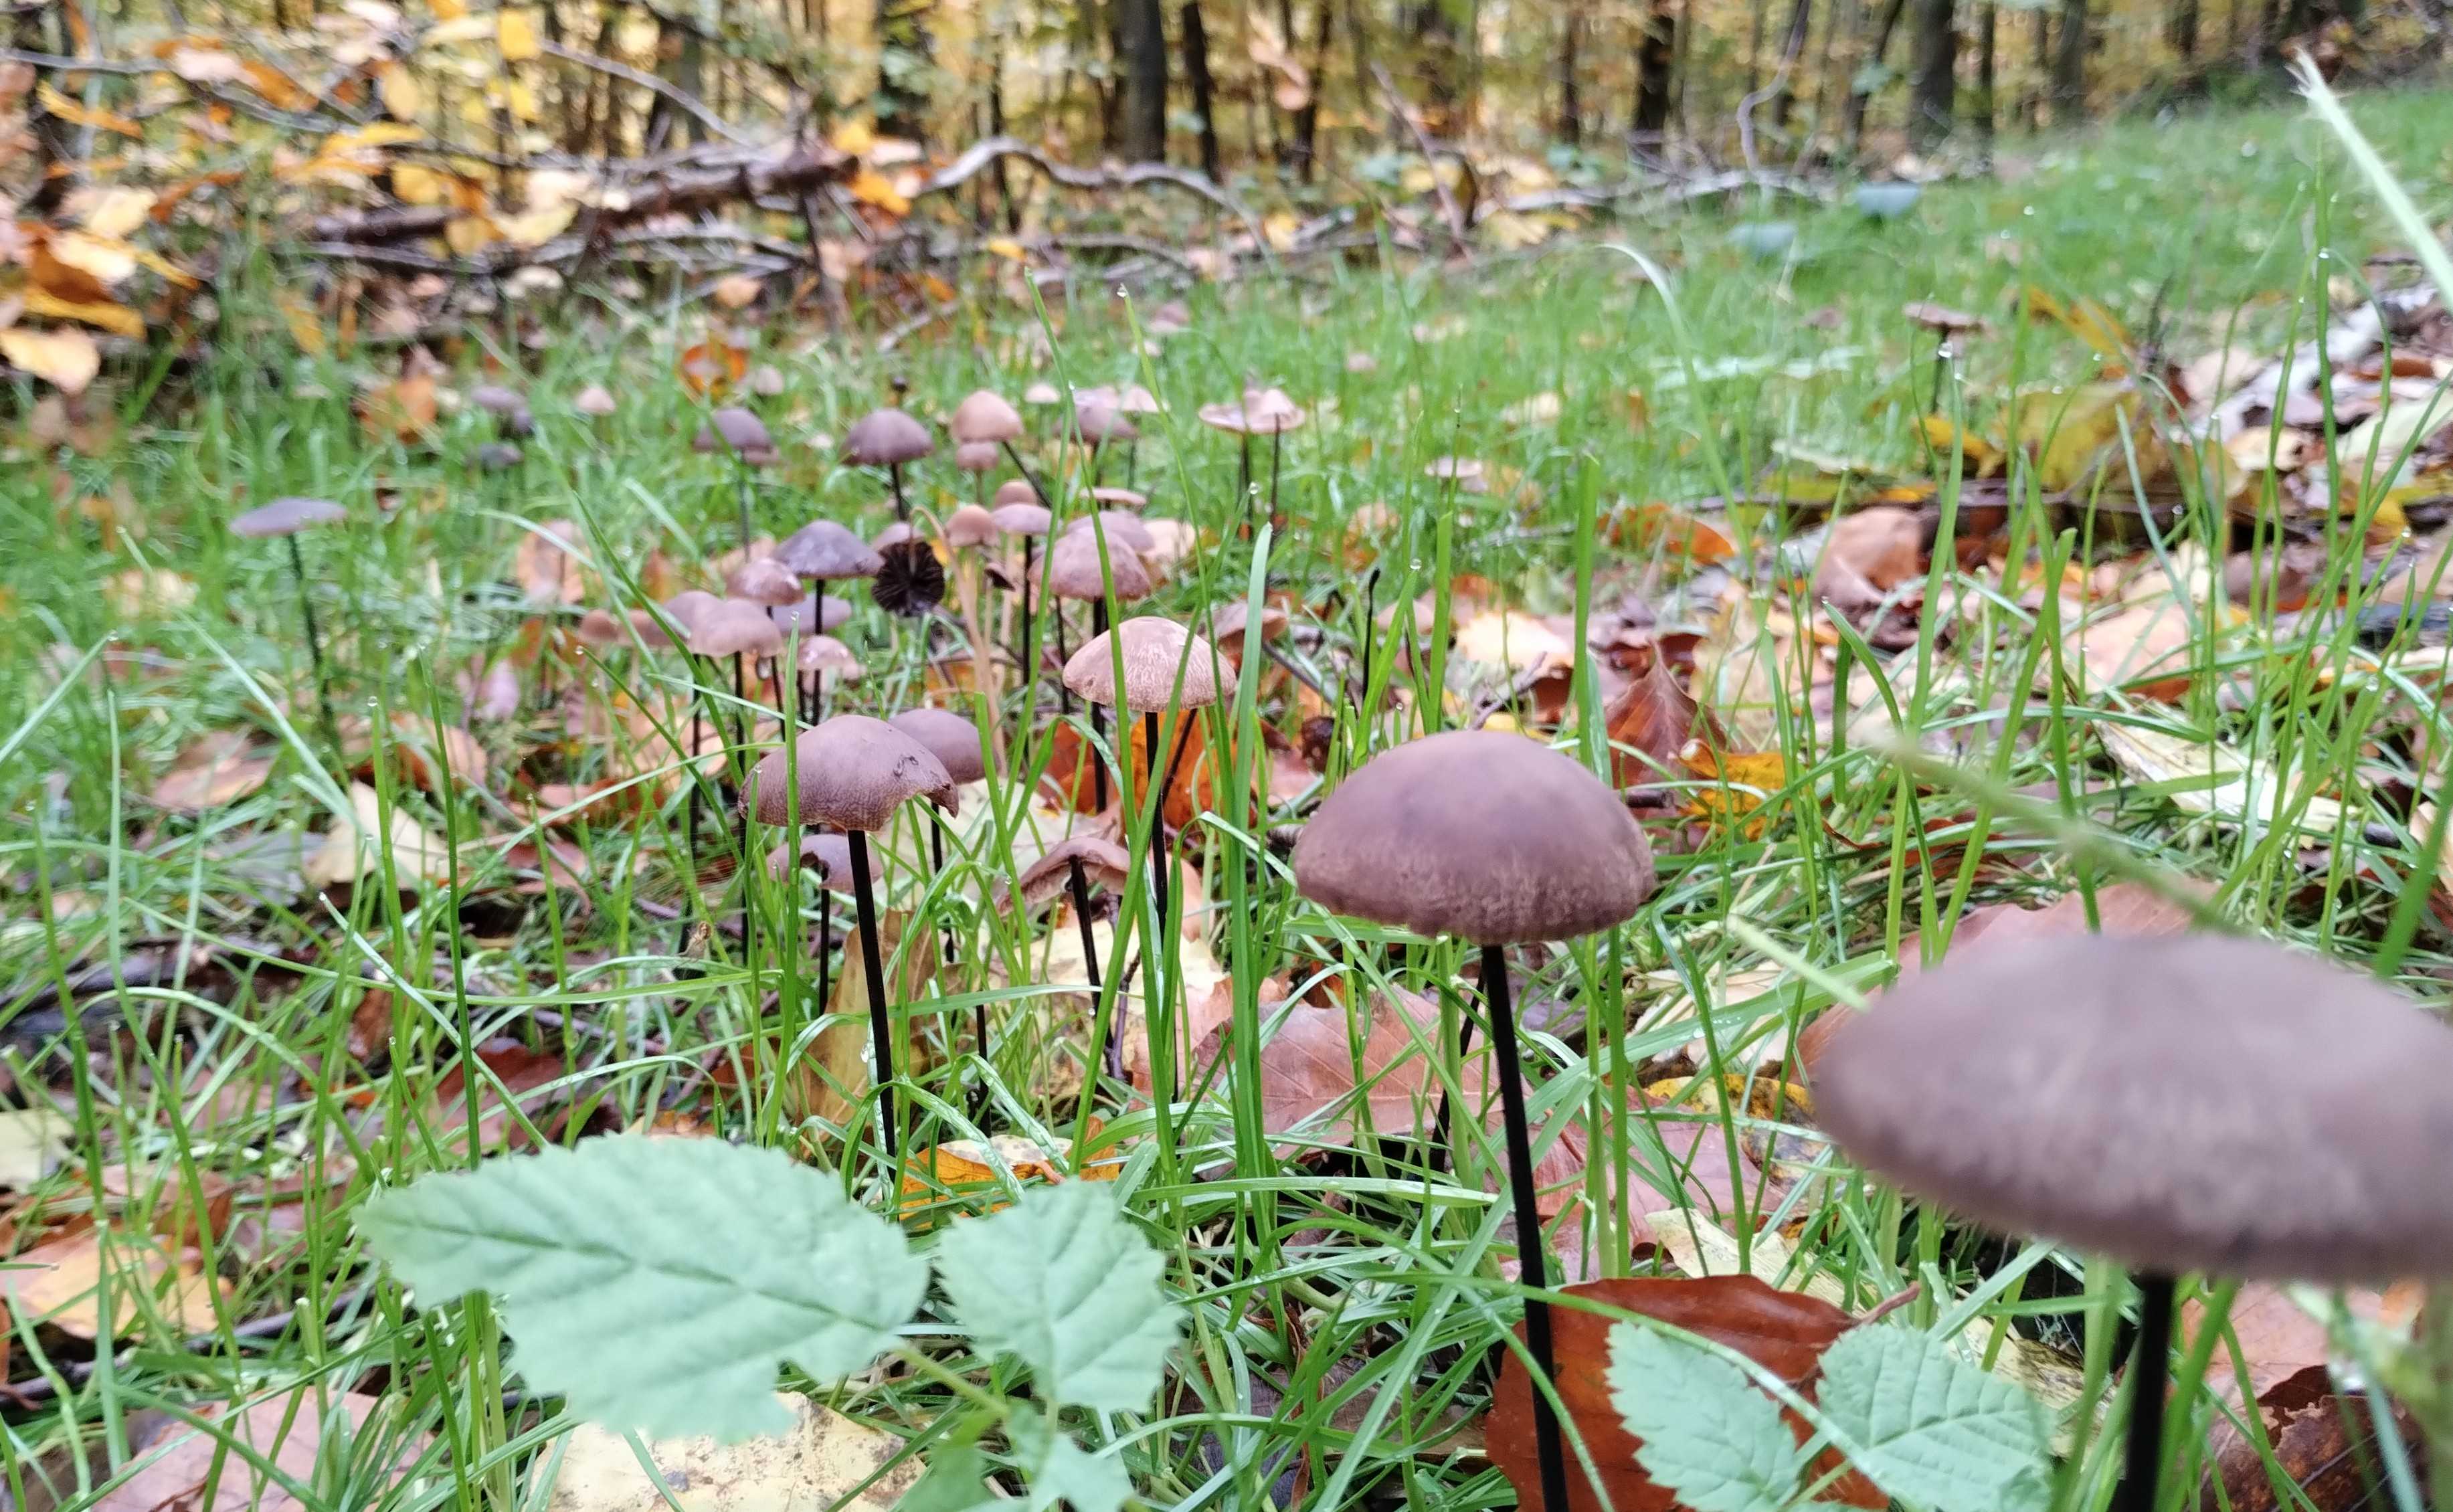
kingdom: Fungi
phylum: Basidiomycota
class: Agaricomycetes
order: Agaricales
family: Omphalotaceae
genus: Mycetinis
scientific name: Mycetinis alliaceus
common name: stor løghat
